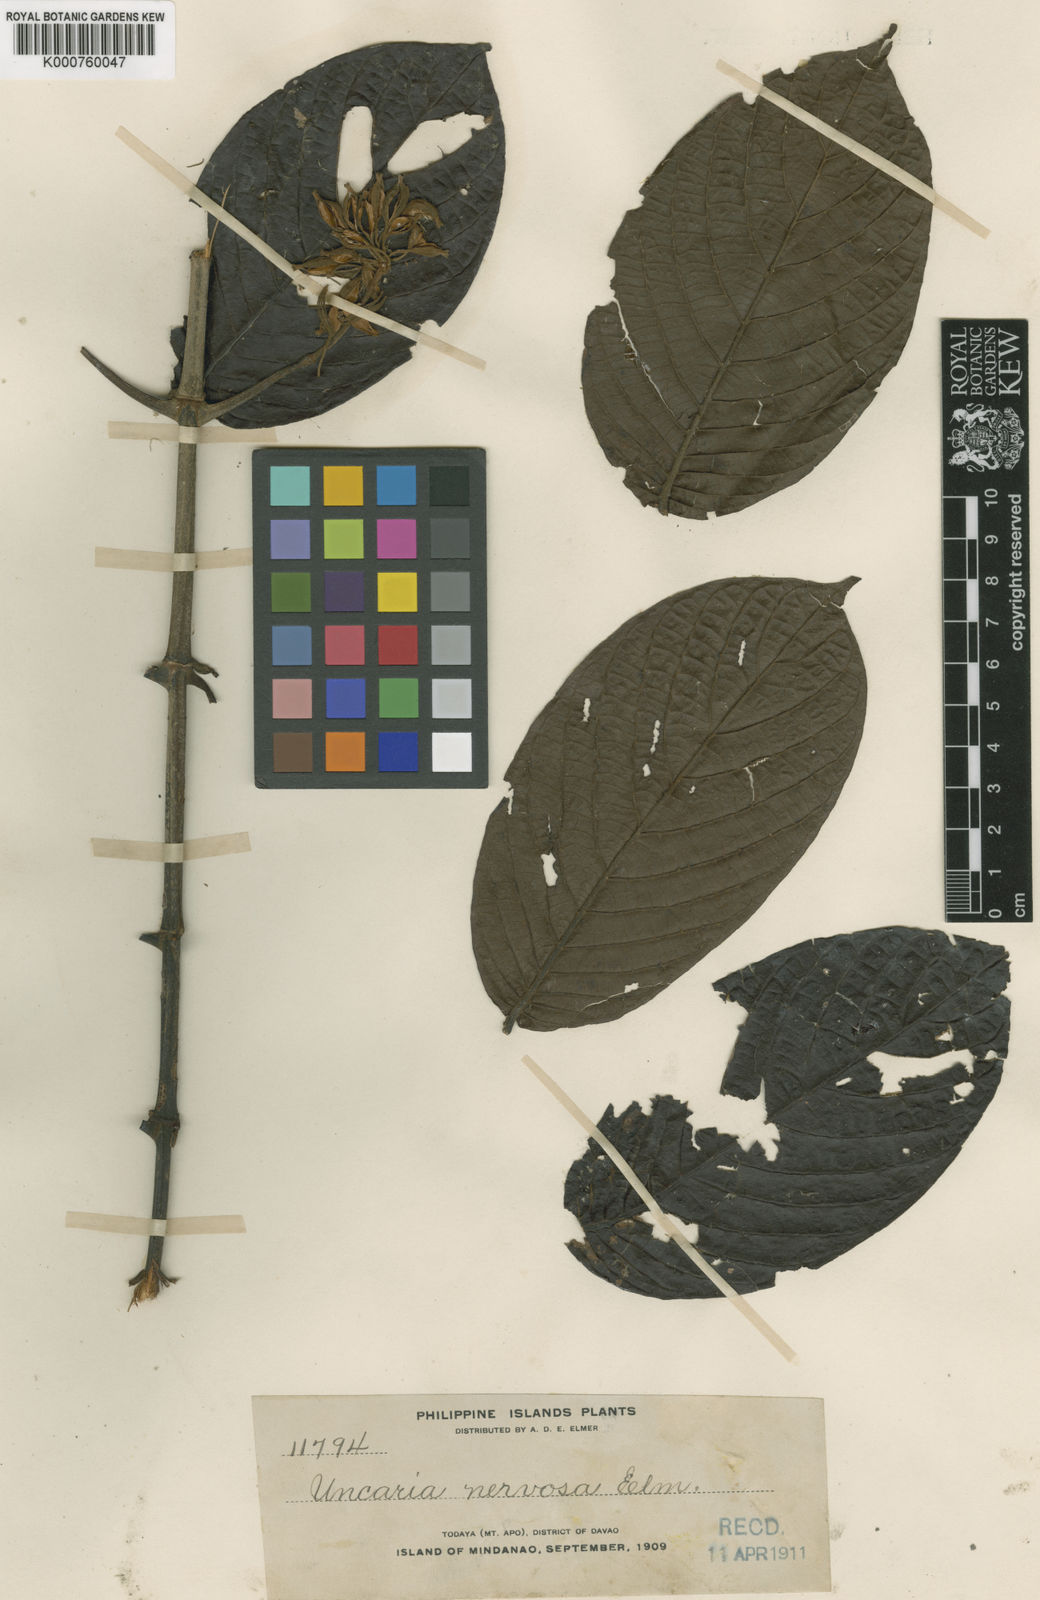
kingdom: Plantae
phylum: Tracheophyta
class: Magnoliopsida
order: Gentianales
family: Rubiaceae
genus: Uncaria
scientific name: Uncaria nervosa
